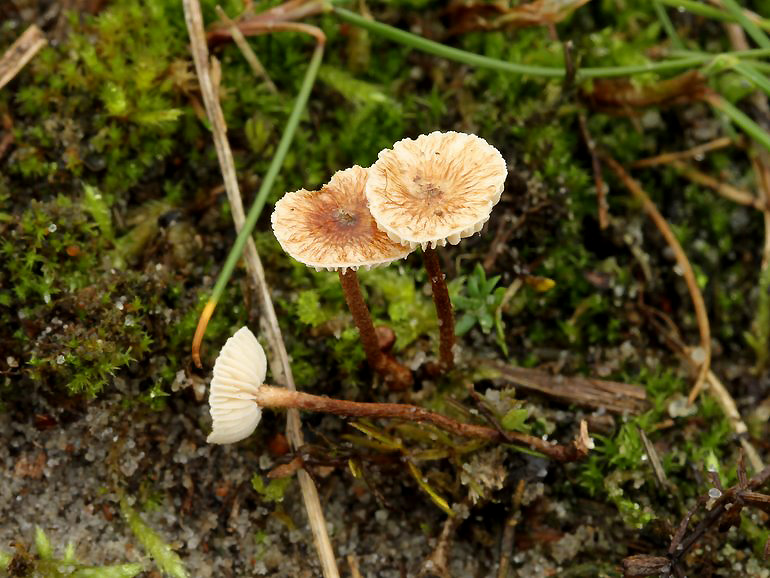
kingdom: Fungi
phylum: Basidiomycota
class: Agaricomycetes
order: Agaricales
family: Marasmiaceae
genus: Crinipellis
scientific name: Crinipellis scabella
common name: børstefod
